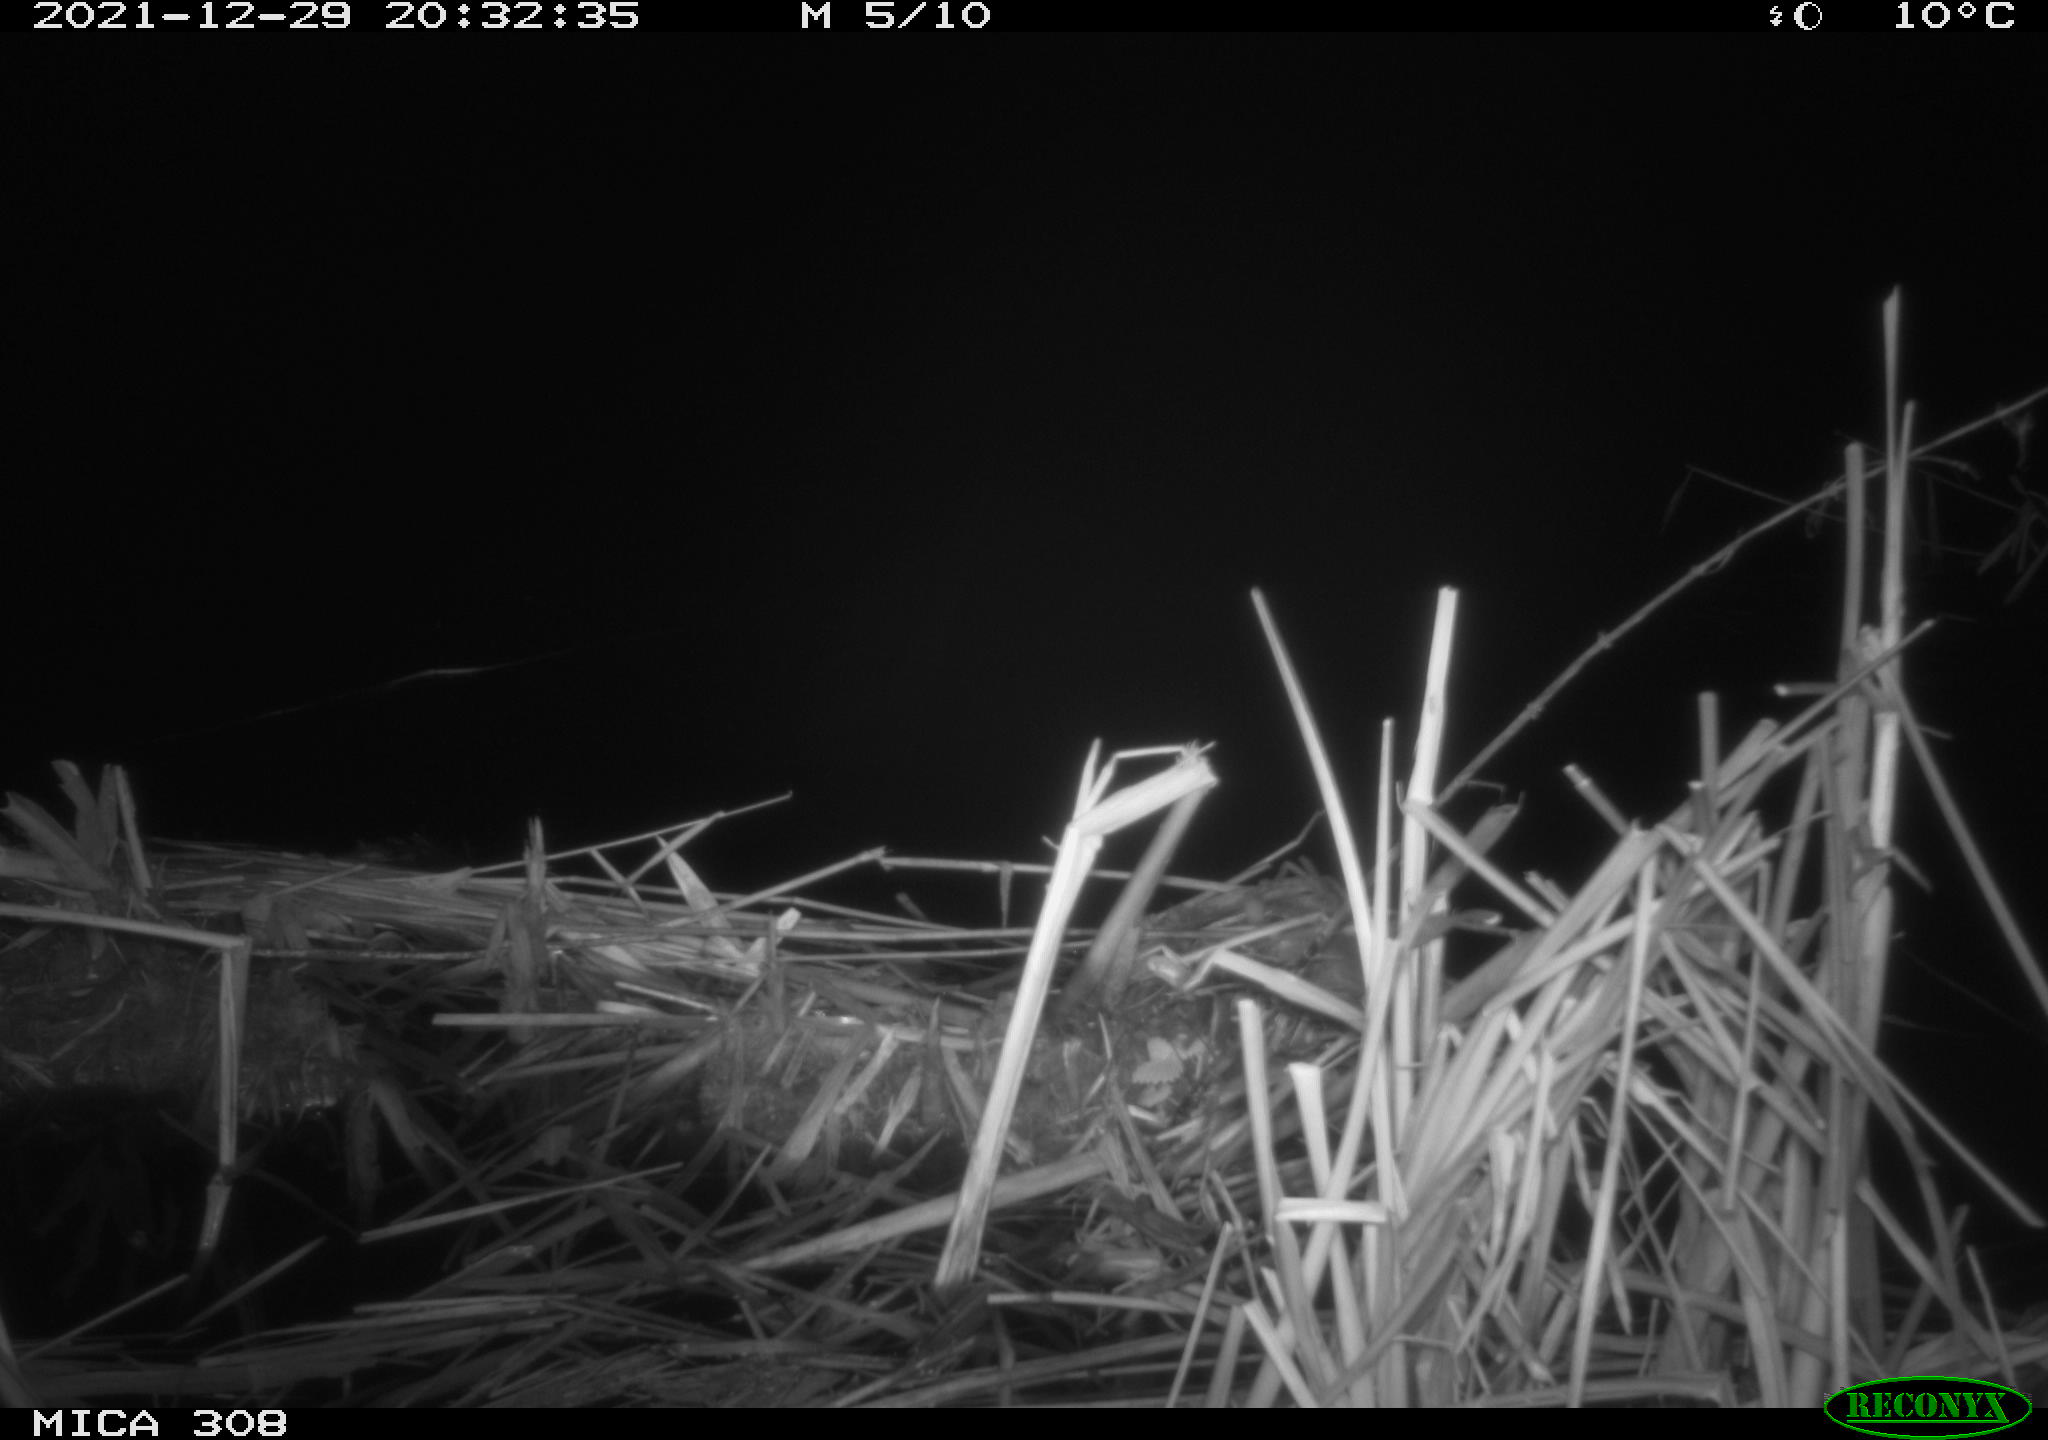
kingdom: Animalia
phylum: Chordata
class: Mammalia
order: Rodentia
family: Muridae
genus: Rattus
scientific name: Rattus norvegicus
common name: Brown rat
